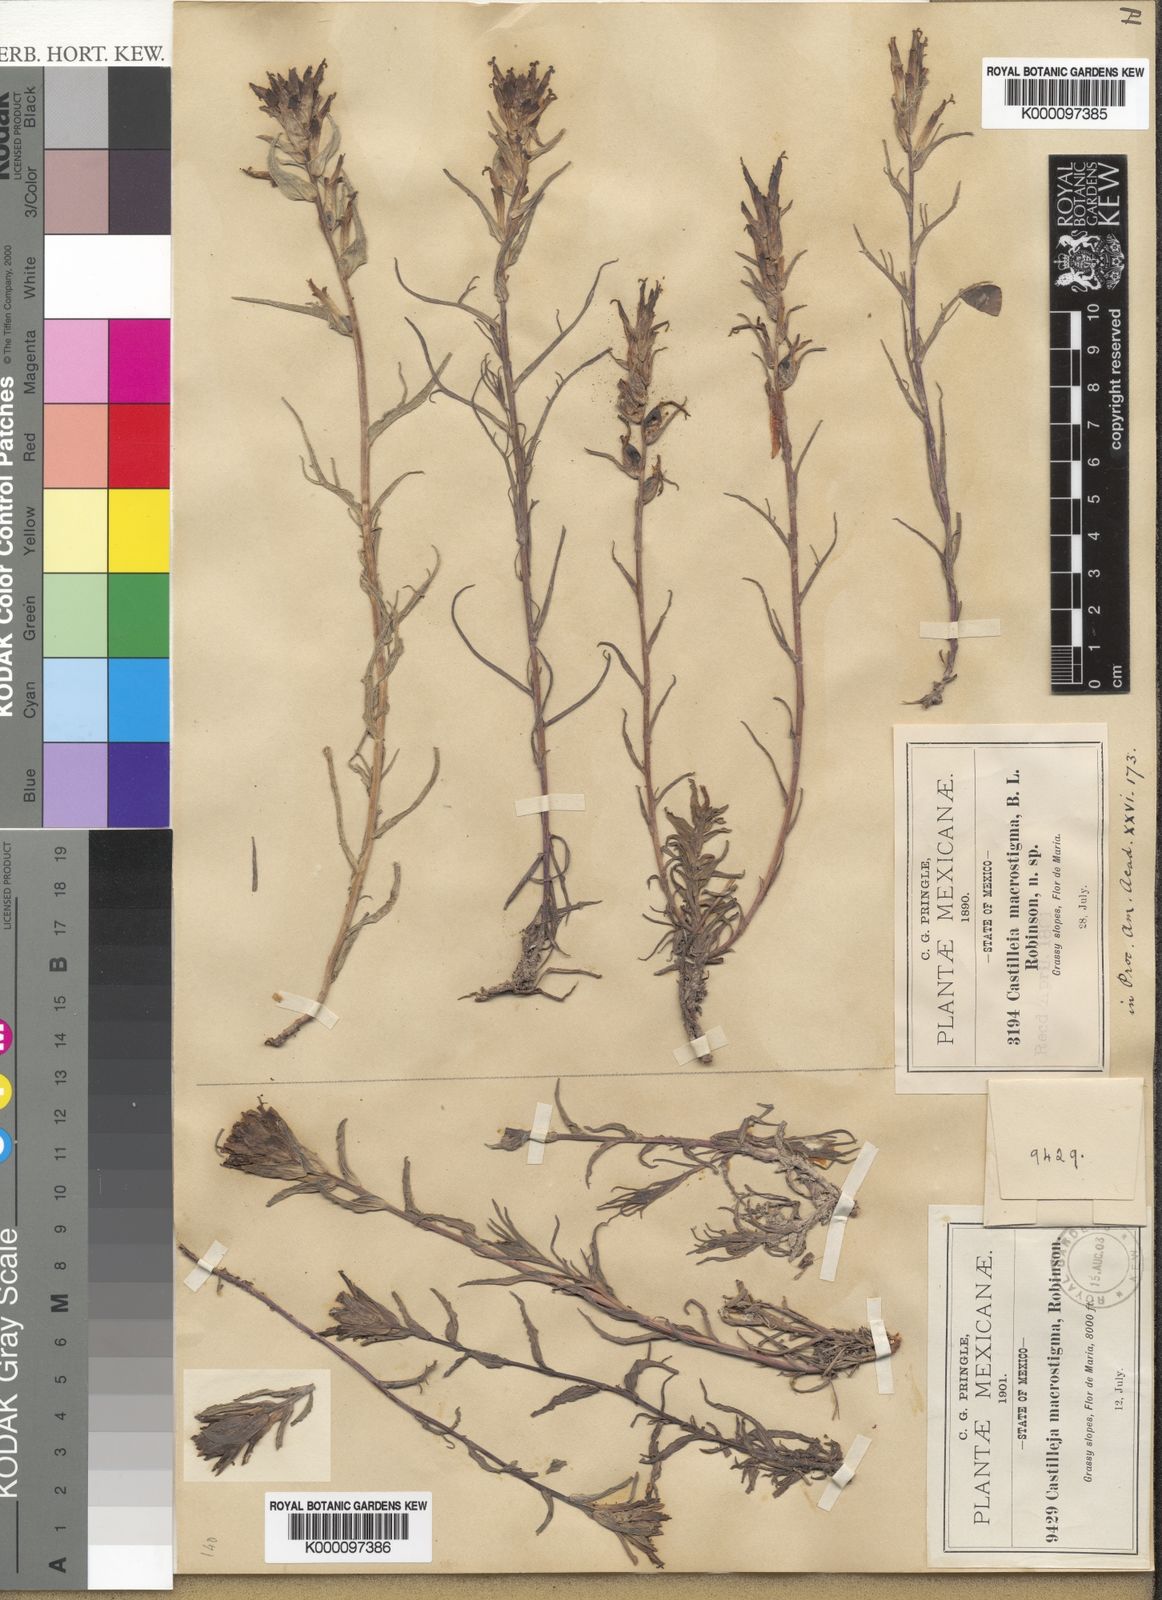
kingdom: Plantae
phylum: Tracheophyta
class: Magnoliopsida
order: Lamiales
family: Orobanchaceae
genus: Castilleja
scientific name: Castilleja macrostigma
